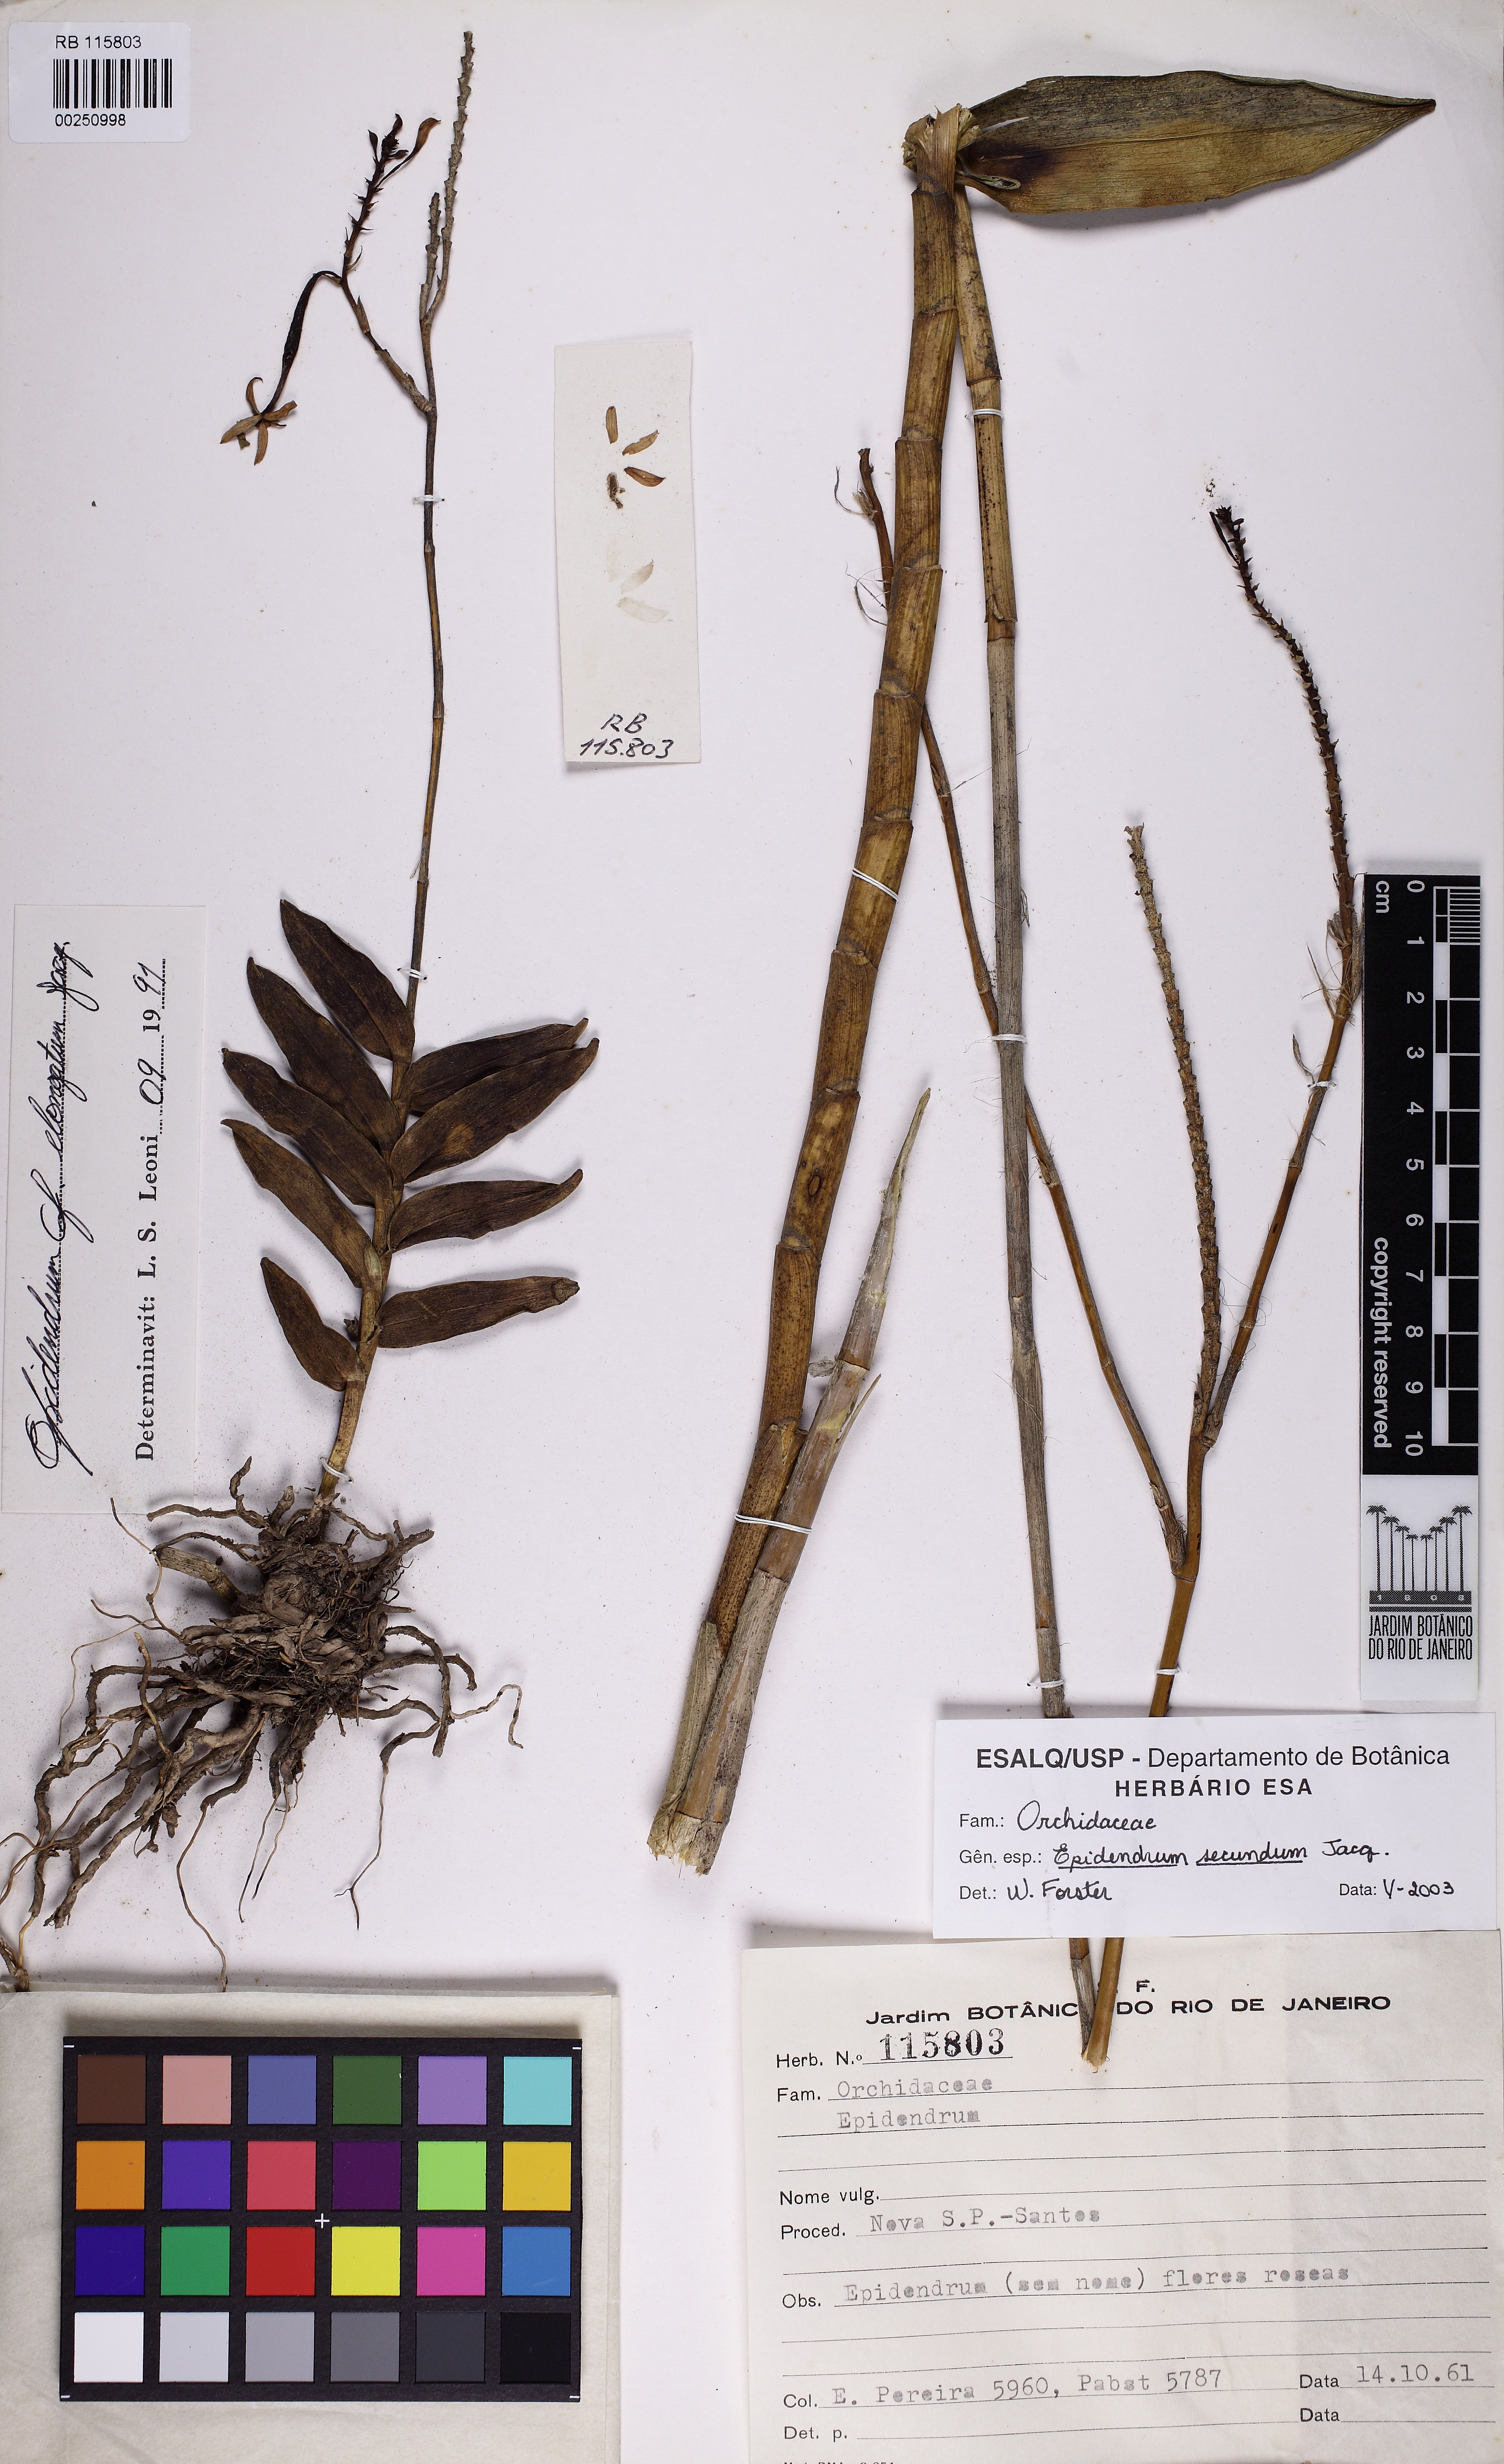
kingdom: Plantae
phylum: Tracheophyta
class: Liliopsida
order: Asparagales
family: Orchidaceae
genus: Epidendrum
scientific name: Epidendrum secundum
